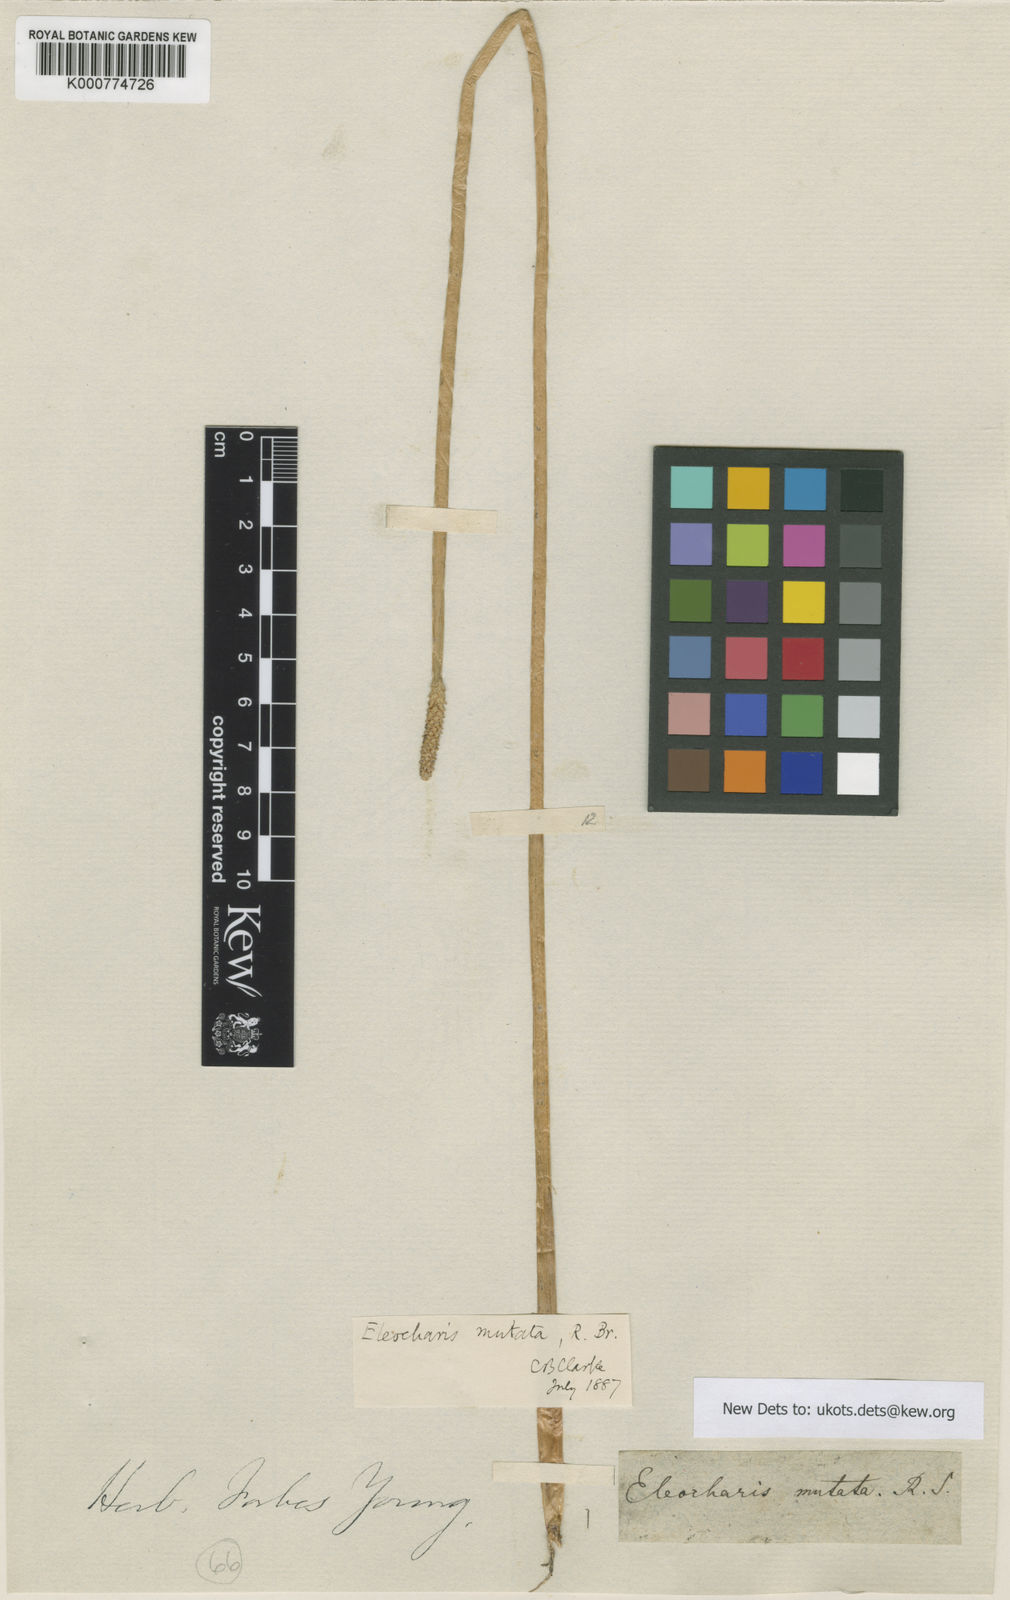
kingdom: Plantae
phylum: Tracheophyta
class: Liliopsida
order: Poales
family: Cyperaceae
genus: Eleocharis
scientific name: Eleocharis mutata
